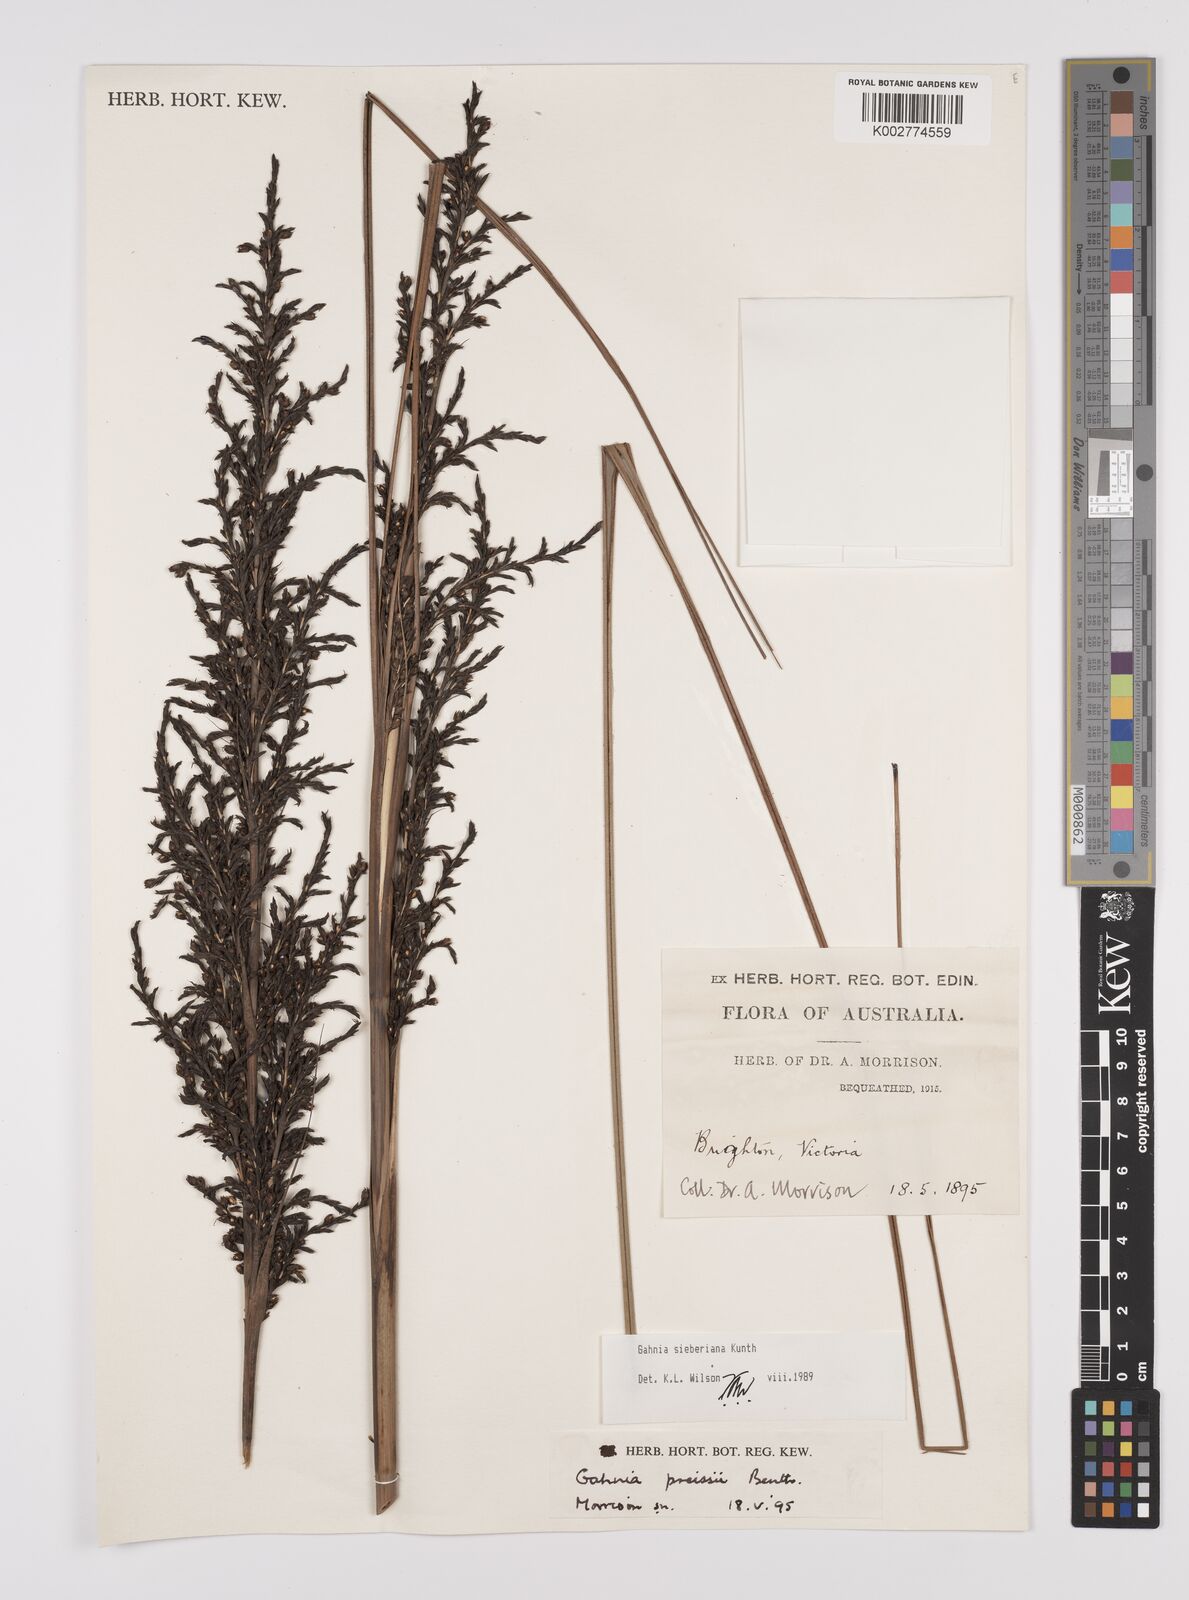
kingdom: Plantae
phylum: Tracheophyta
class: Liliopsida
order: Poales
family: Cyperaceae
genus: Gahnia
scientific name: Gahnia sieberiana
